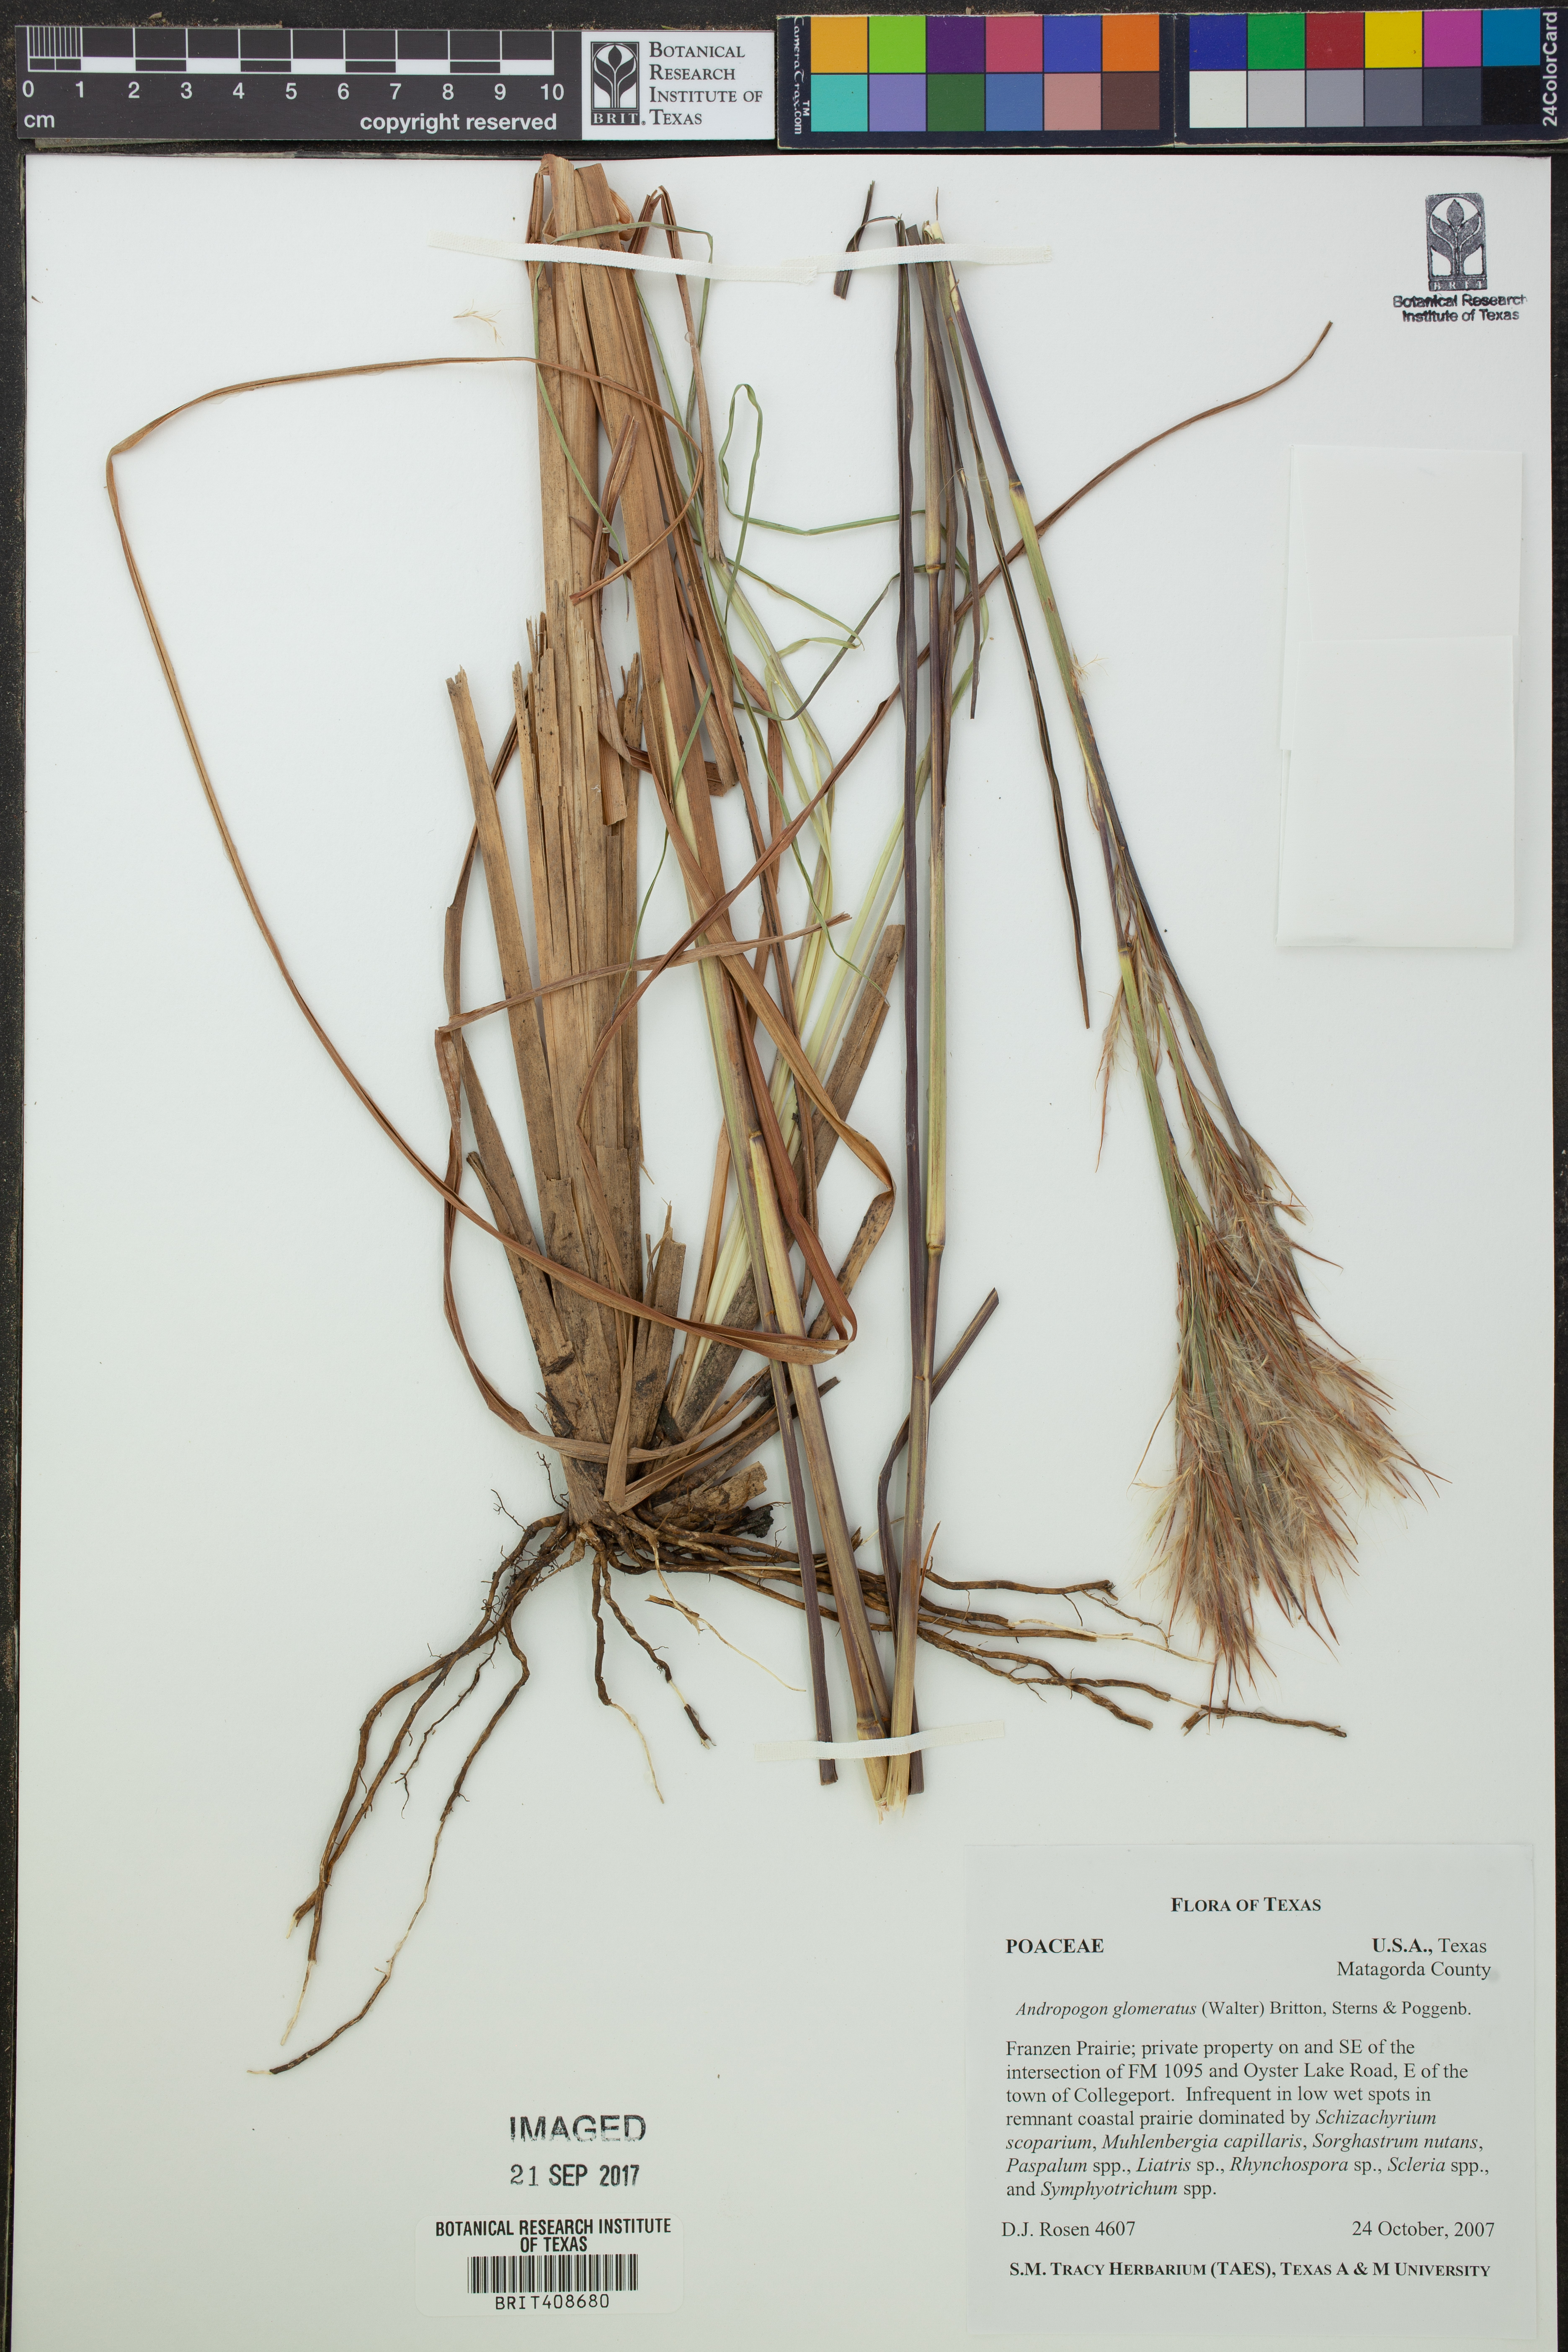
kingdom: Plantae
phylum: Tracheophyta
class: Liliopsida
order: Poales
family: Poaceae
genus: Andropogon
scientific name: Andropogon glomeratus
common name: Bushy beard grass
